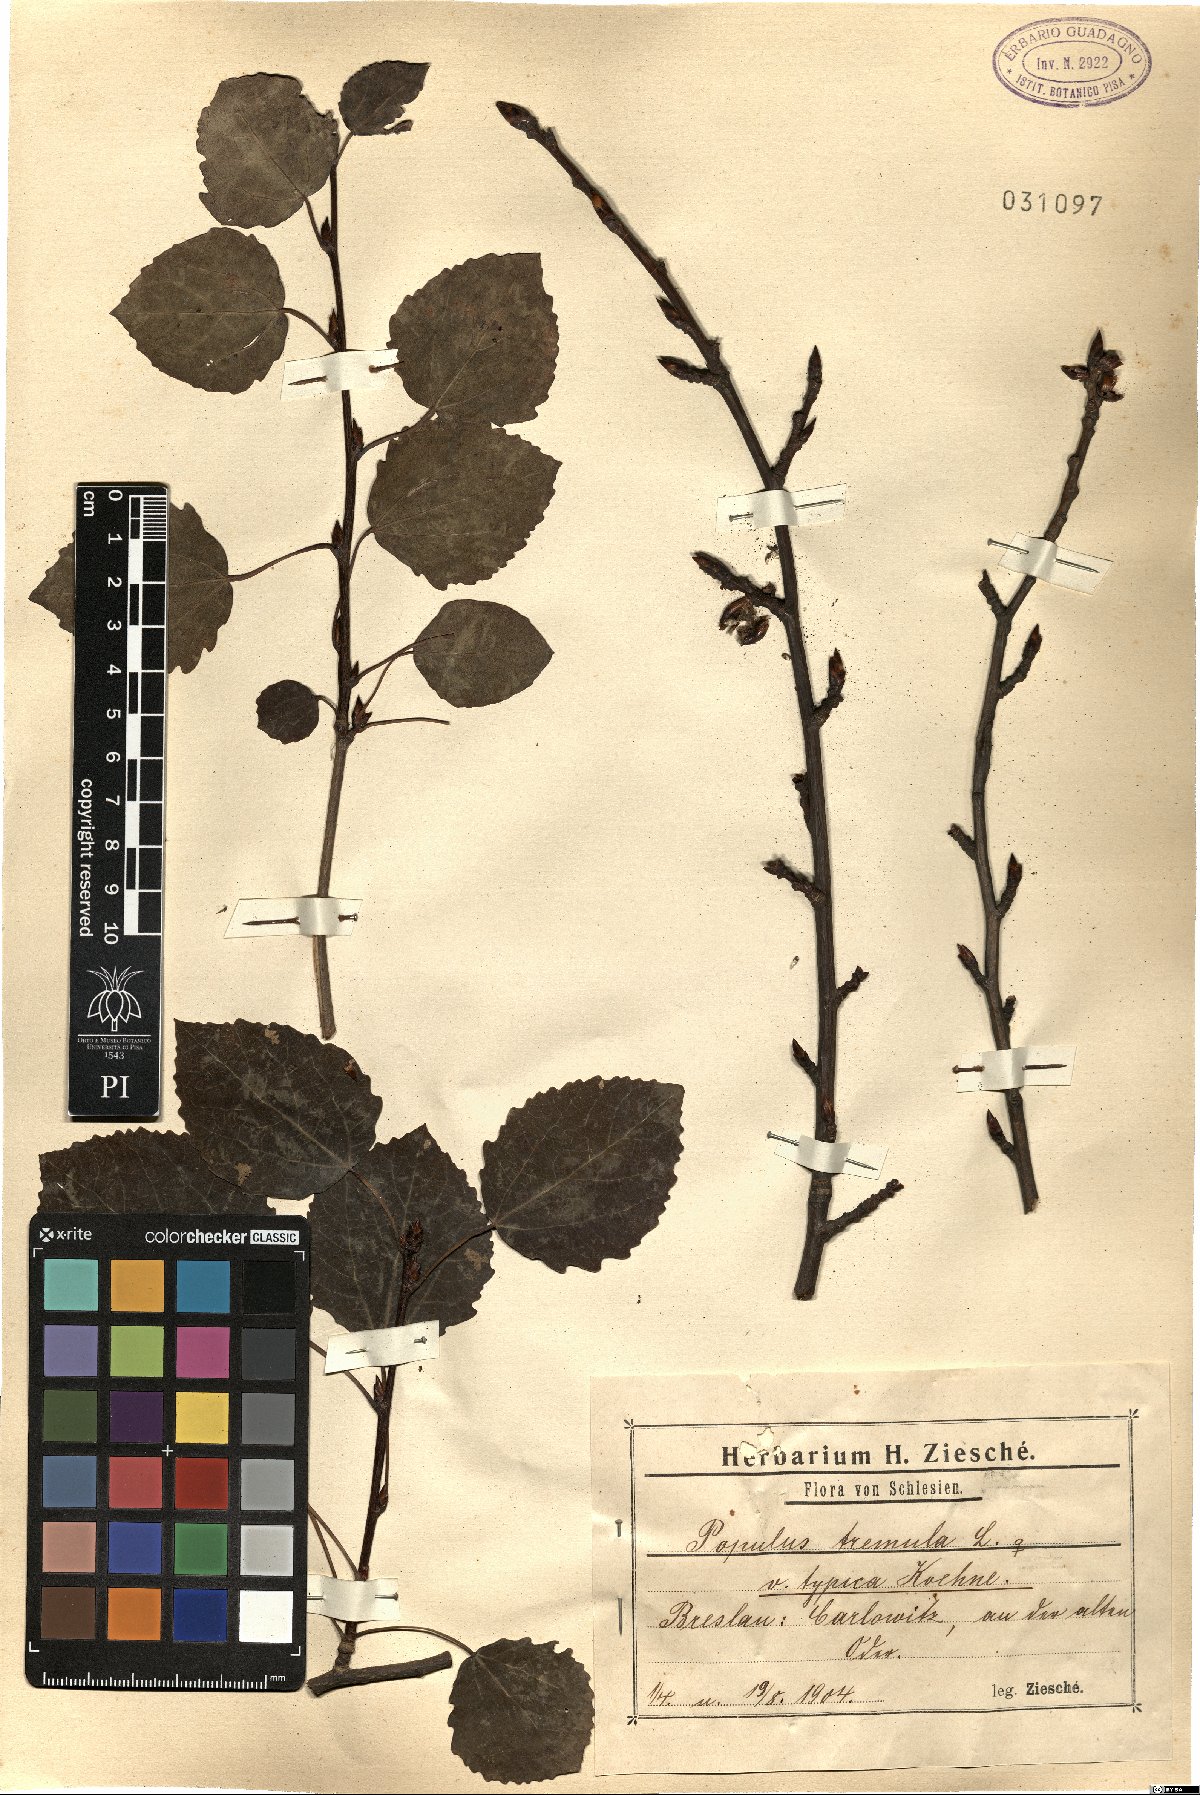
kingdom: Plantae
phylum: Tracheophyta
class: Magnoliopsida
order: Malpighiales
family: Salicaceae
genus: Populus
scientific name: Populus tremula
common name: European aspen
